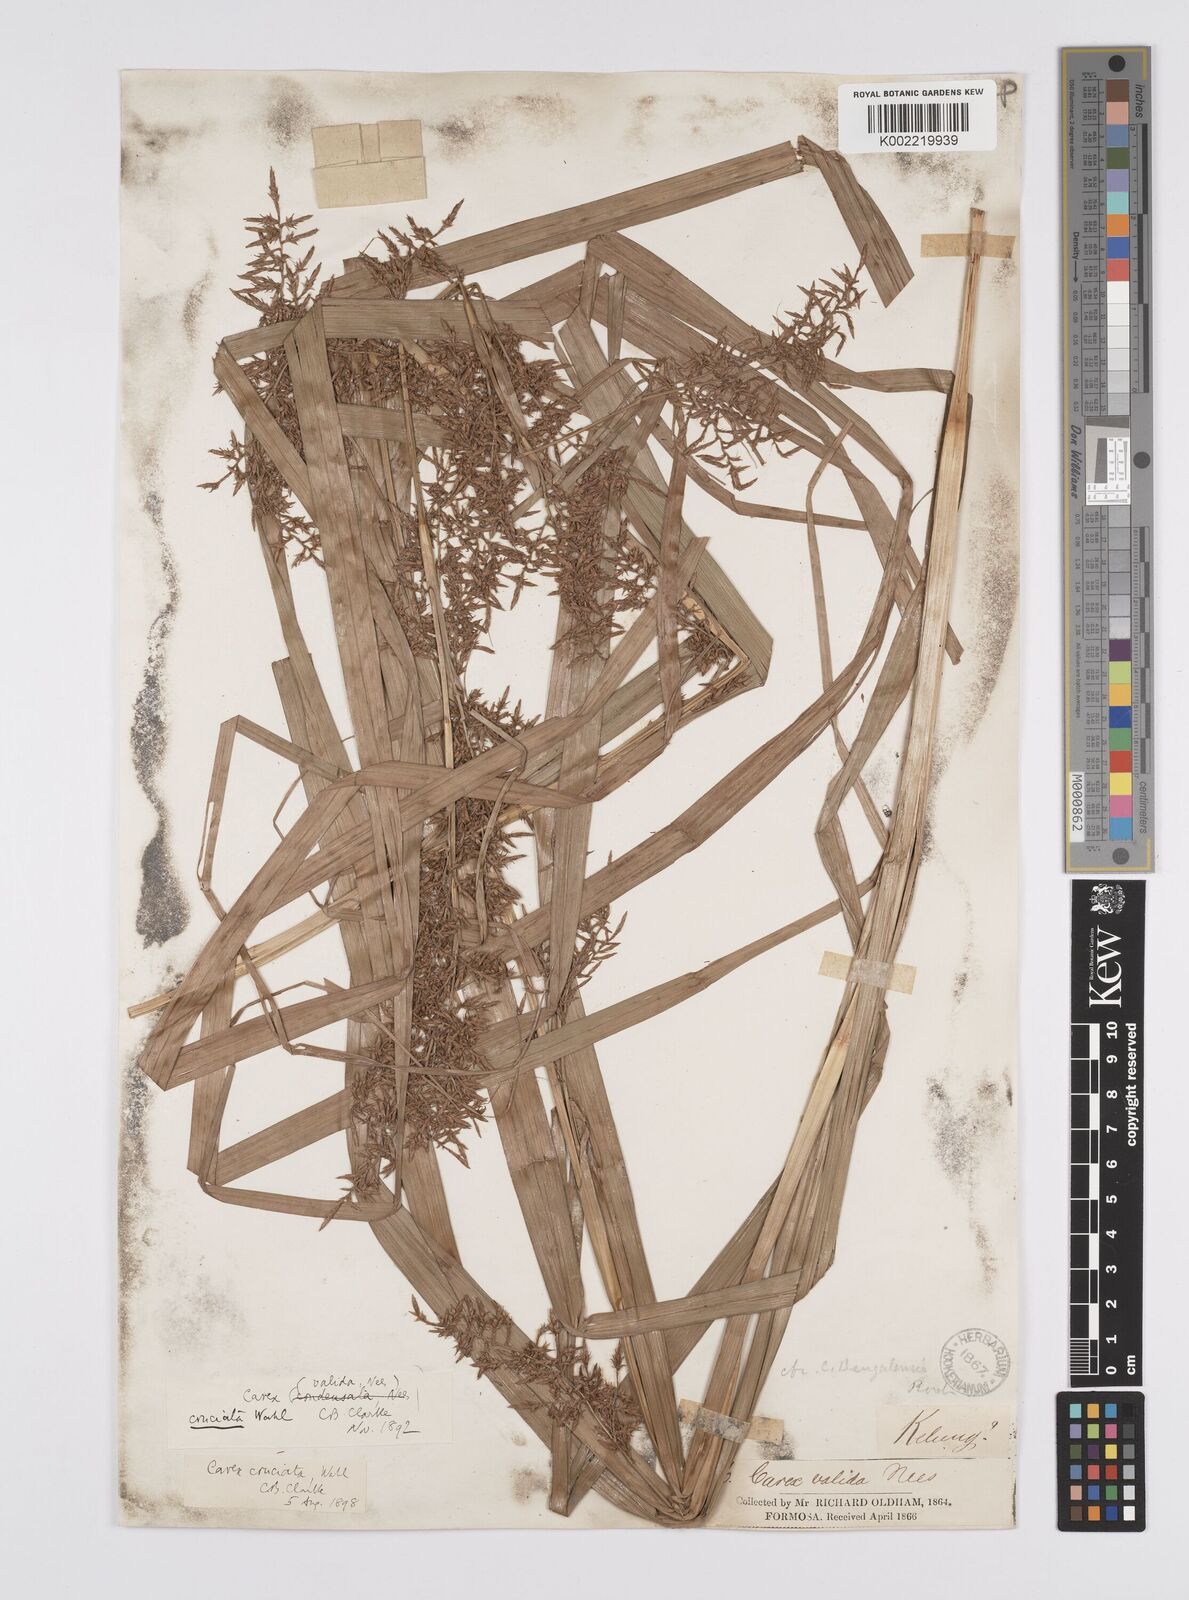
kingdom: Plantae
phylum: Tracheophyta
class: Liliopsida
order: Poales
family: Cyperaceae
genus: Carex
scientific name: Carex cruciata
